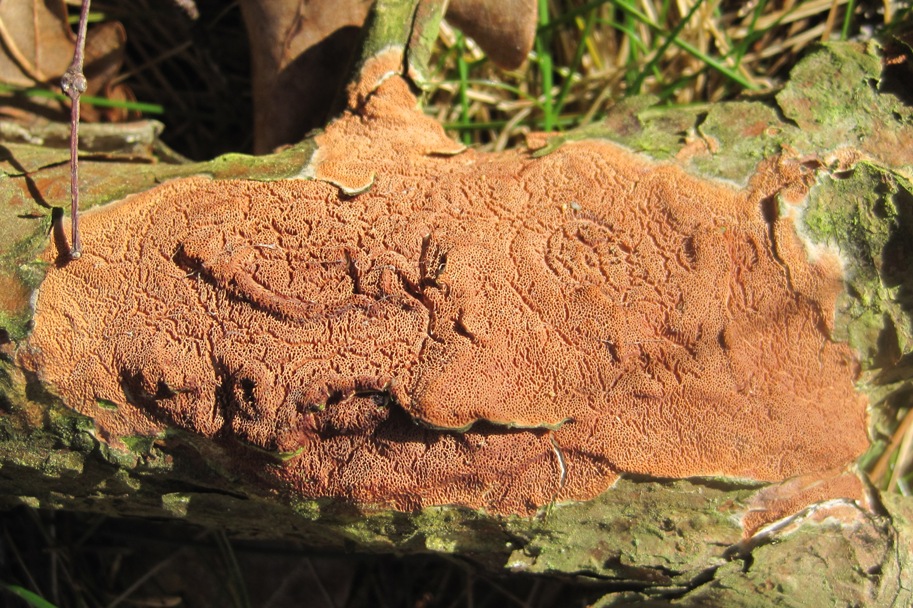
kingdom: Fungi
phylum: Basidiomycota
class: Agaricomycetes
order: Polyporales
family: Irpicaceae
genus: Meruliopsis
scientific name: Meruliopsis taxicola
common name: purpurbrun foldporesvamp
